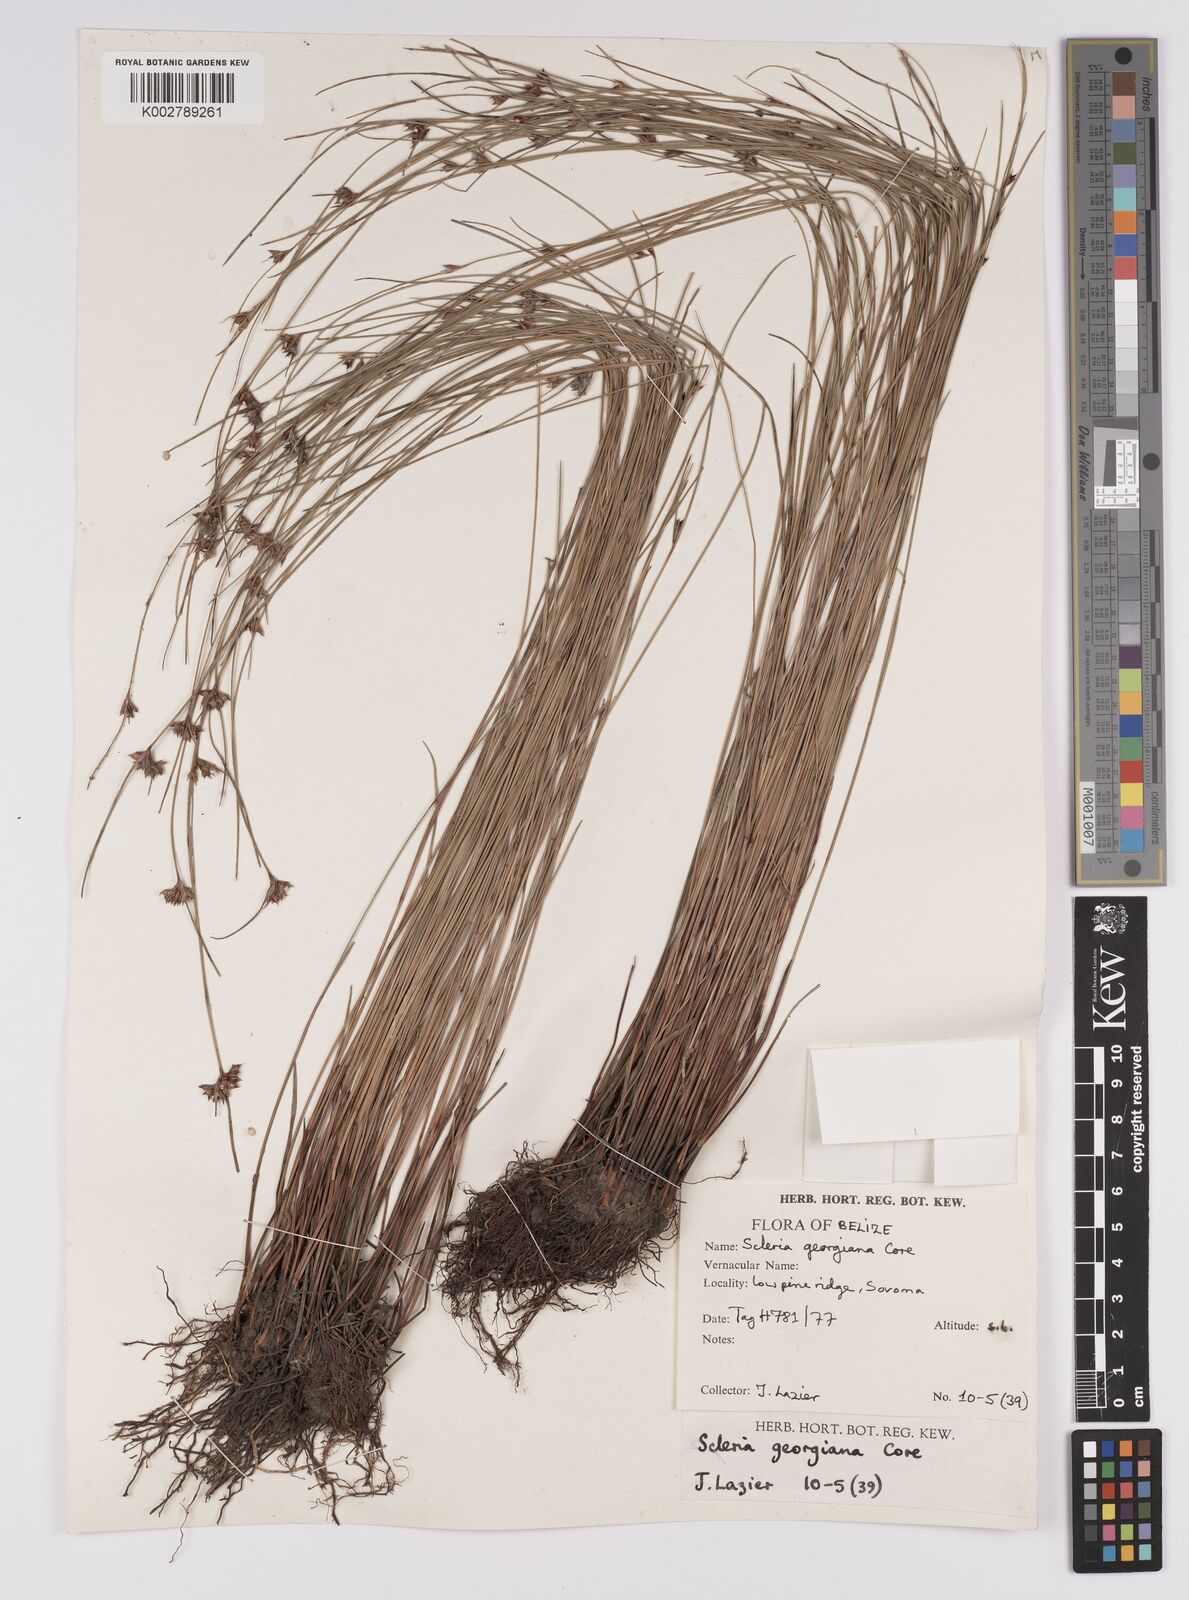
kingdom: Plantae
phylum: Tracheophyta
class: Liliopsida
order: Poales
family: Cyperaceae
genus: Scleria
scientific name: Scleria georgiana
